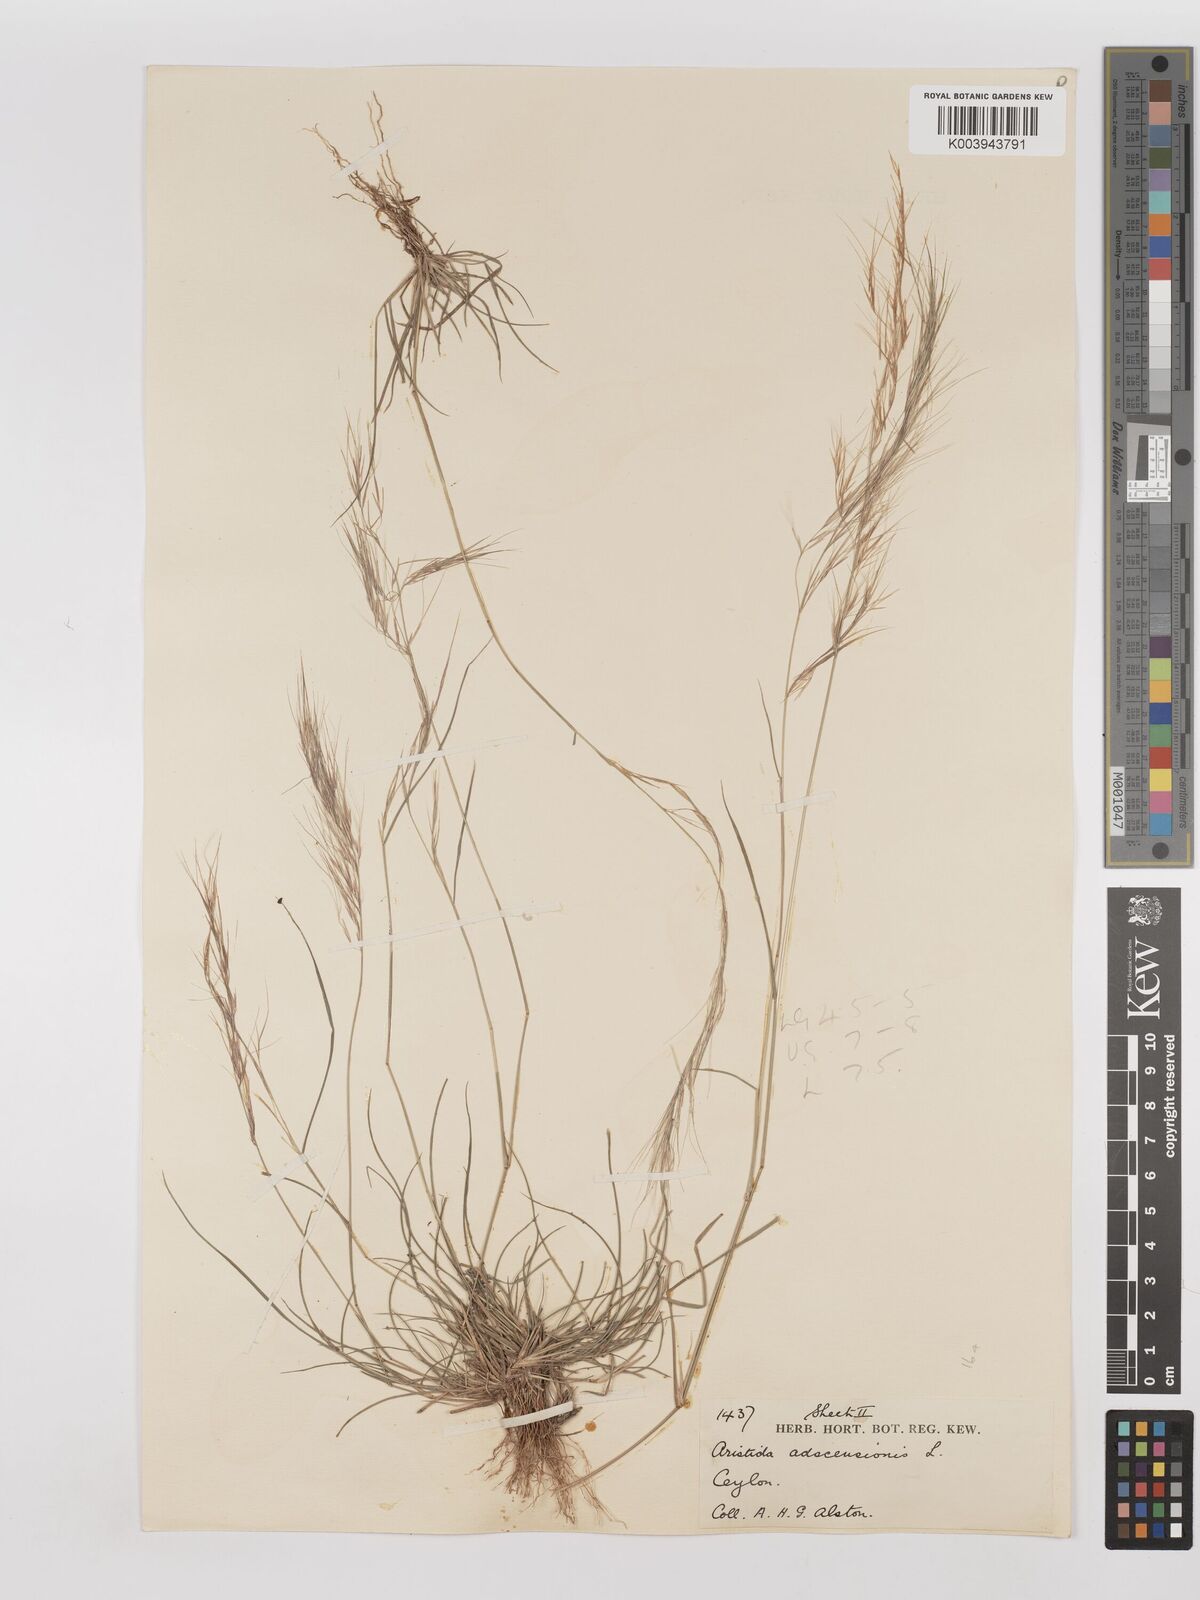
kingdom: Plantae
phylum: Tracheophyta
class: Liliopsida
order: Poales
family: Poaceae
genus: Aristida
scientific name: Aristida adscensionis
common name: Sixweeks threeawn
